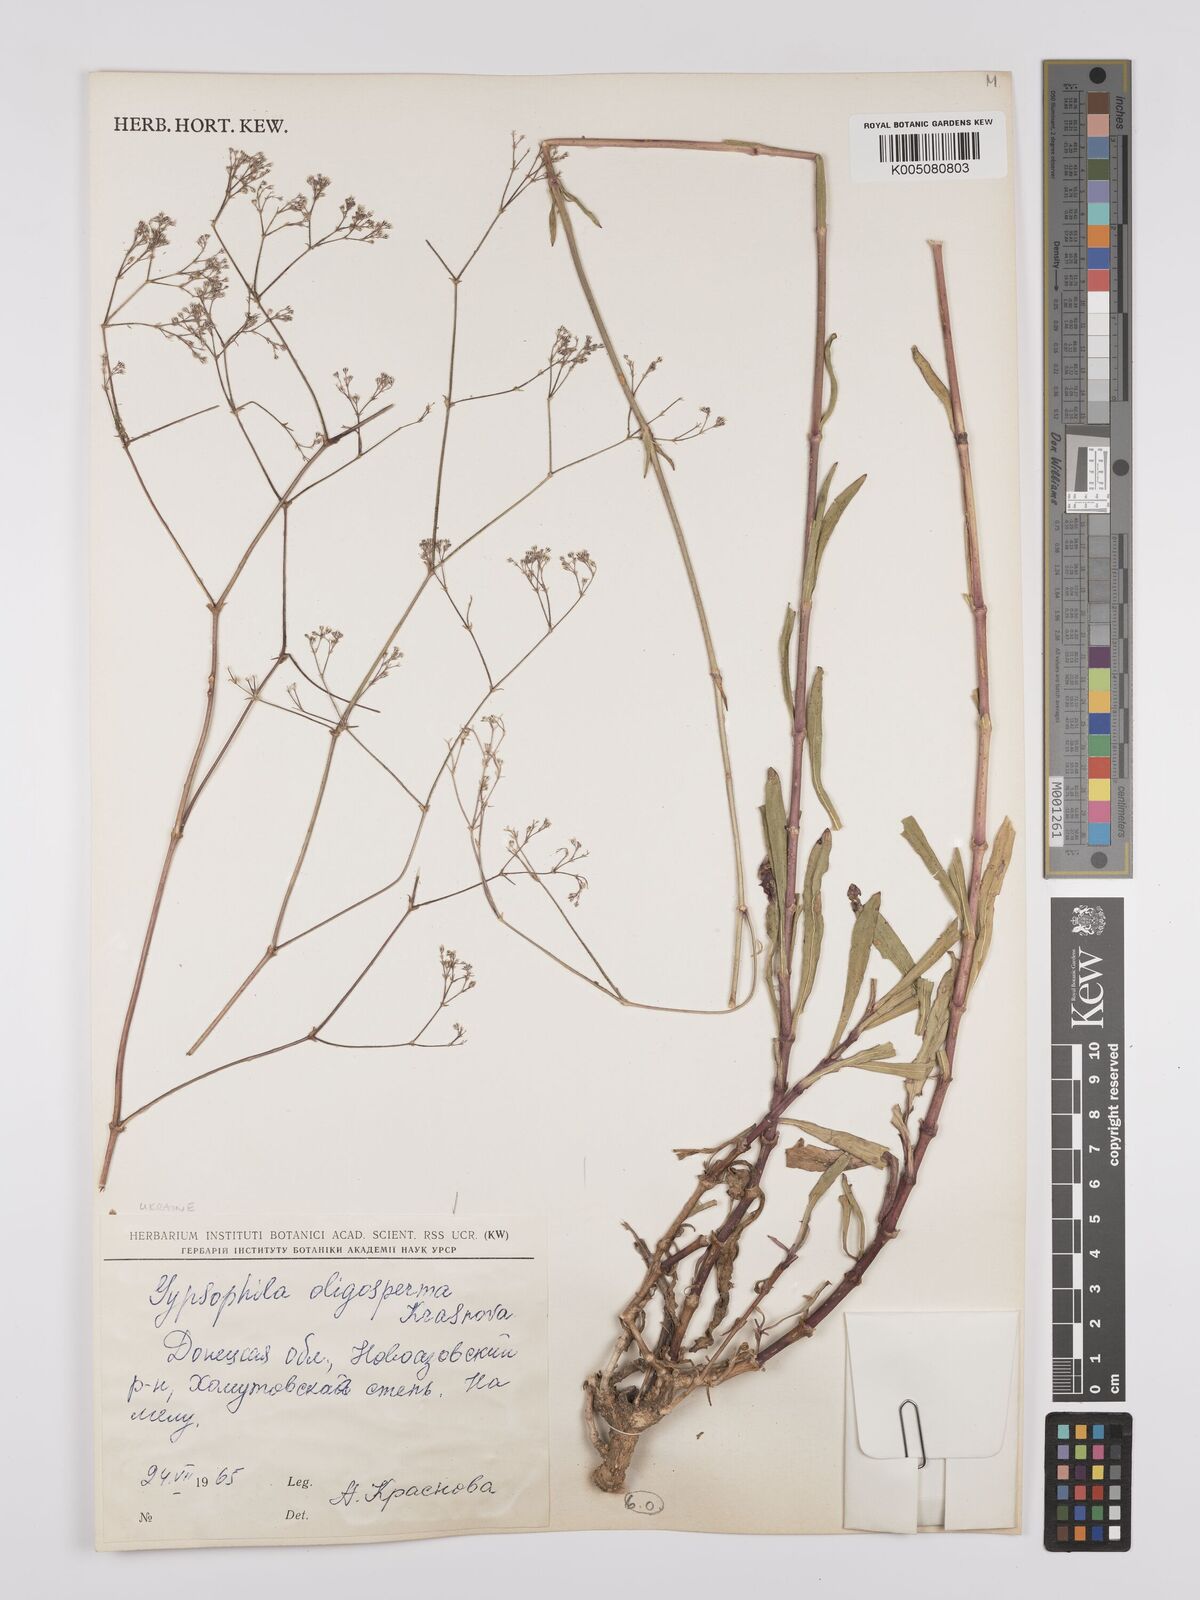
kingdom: Plantae
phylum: Tracheophyta
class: Magnoliopsida
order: Caryophyllales
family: Caryophyllaceae
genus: Gypsophila
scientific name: Gypsophila oligosperma
